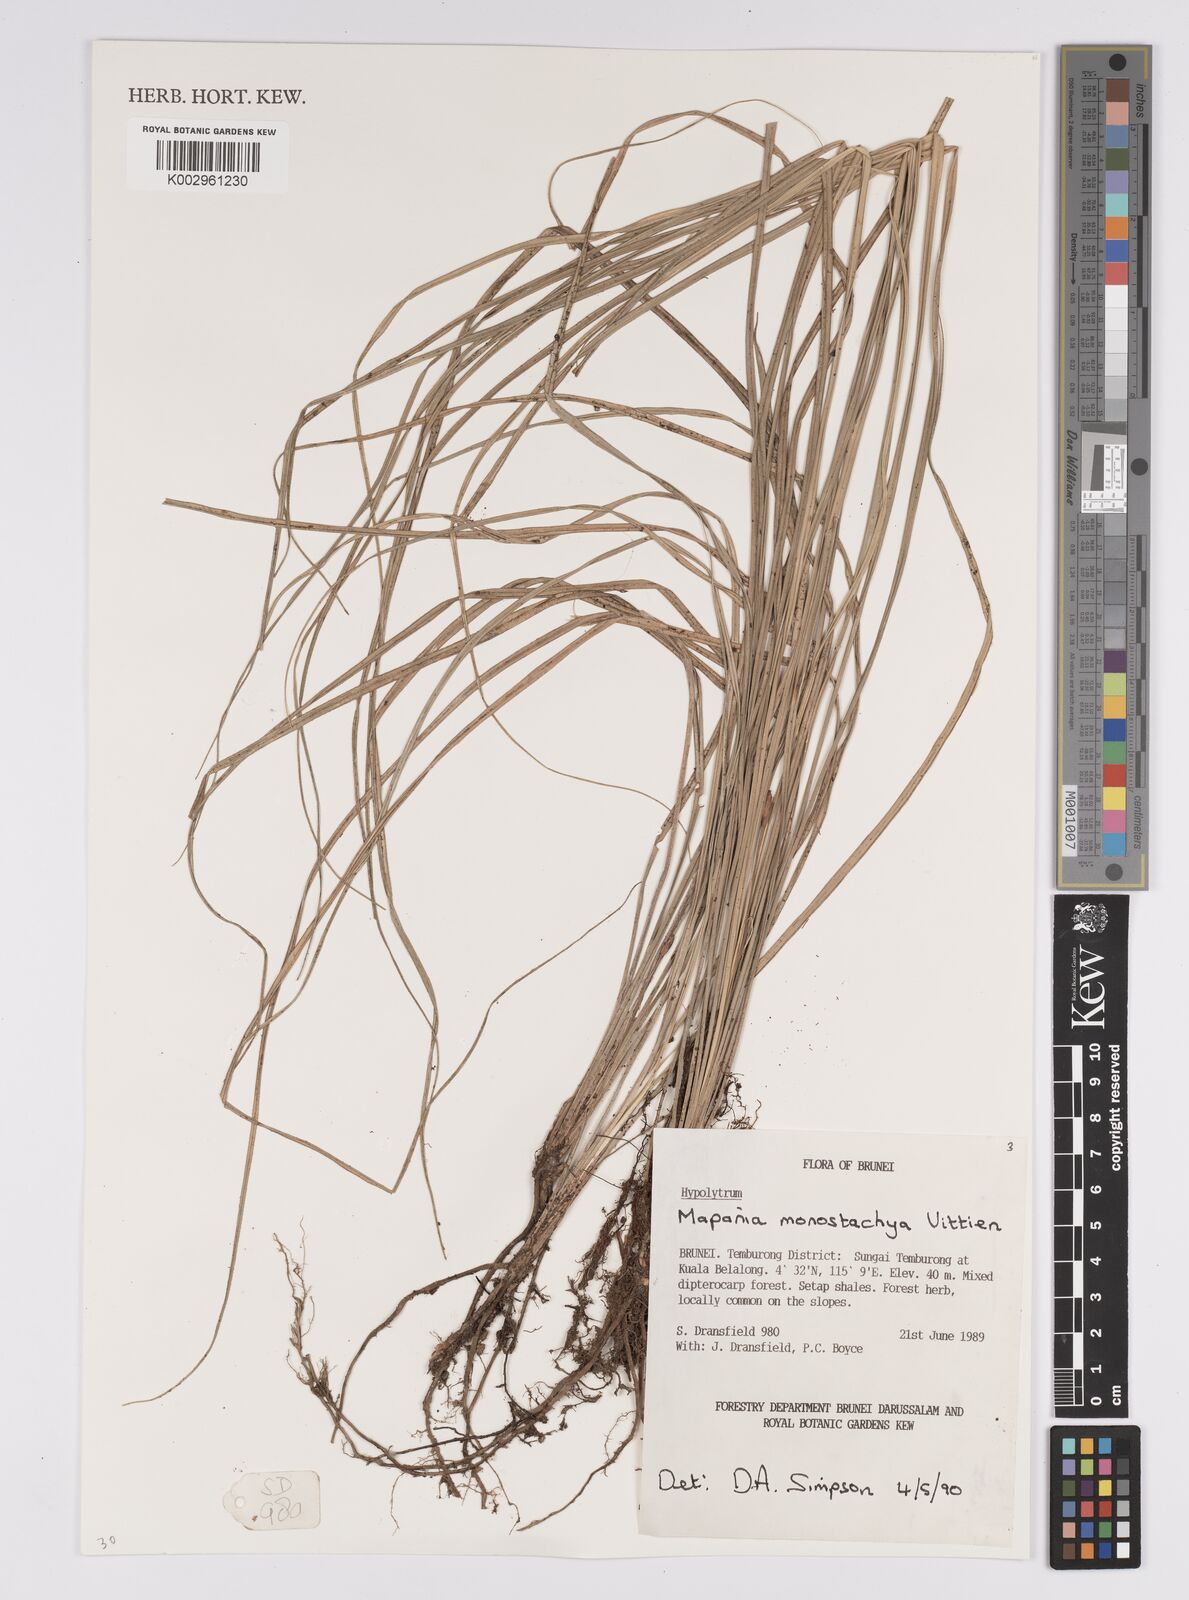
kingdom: Plantae
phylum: Tracheophyta
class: Liliopsida
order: Poales
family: Cyperaceae
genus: Mapania
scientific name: Mapania monostachya
